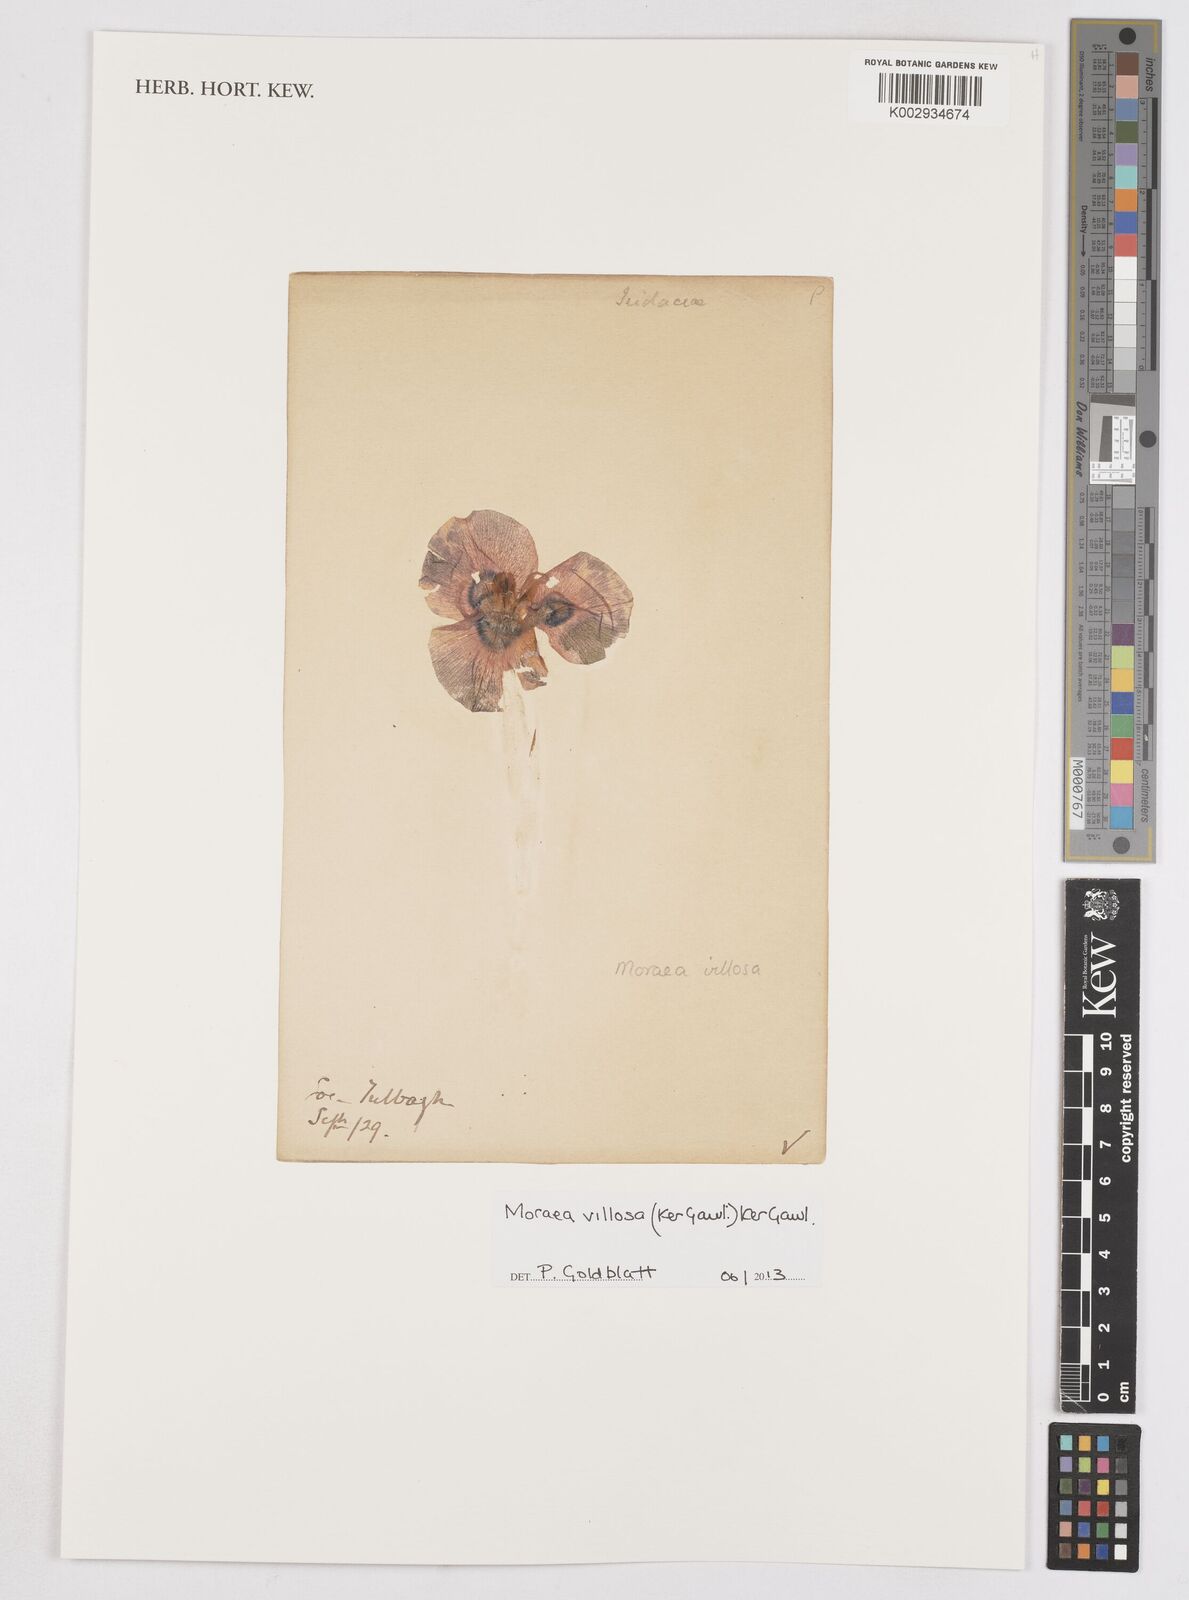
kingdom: Plantae
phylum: Tracheophyta
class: Liliopsida
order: Asparagales
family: Iridaceae
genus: Moraea
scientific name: Moraea villosa
